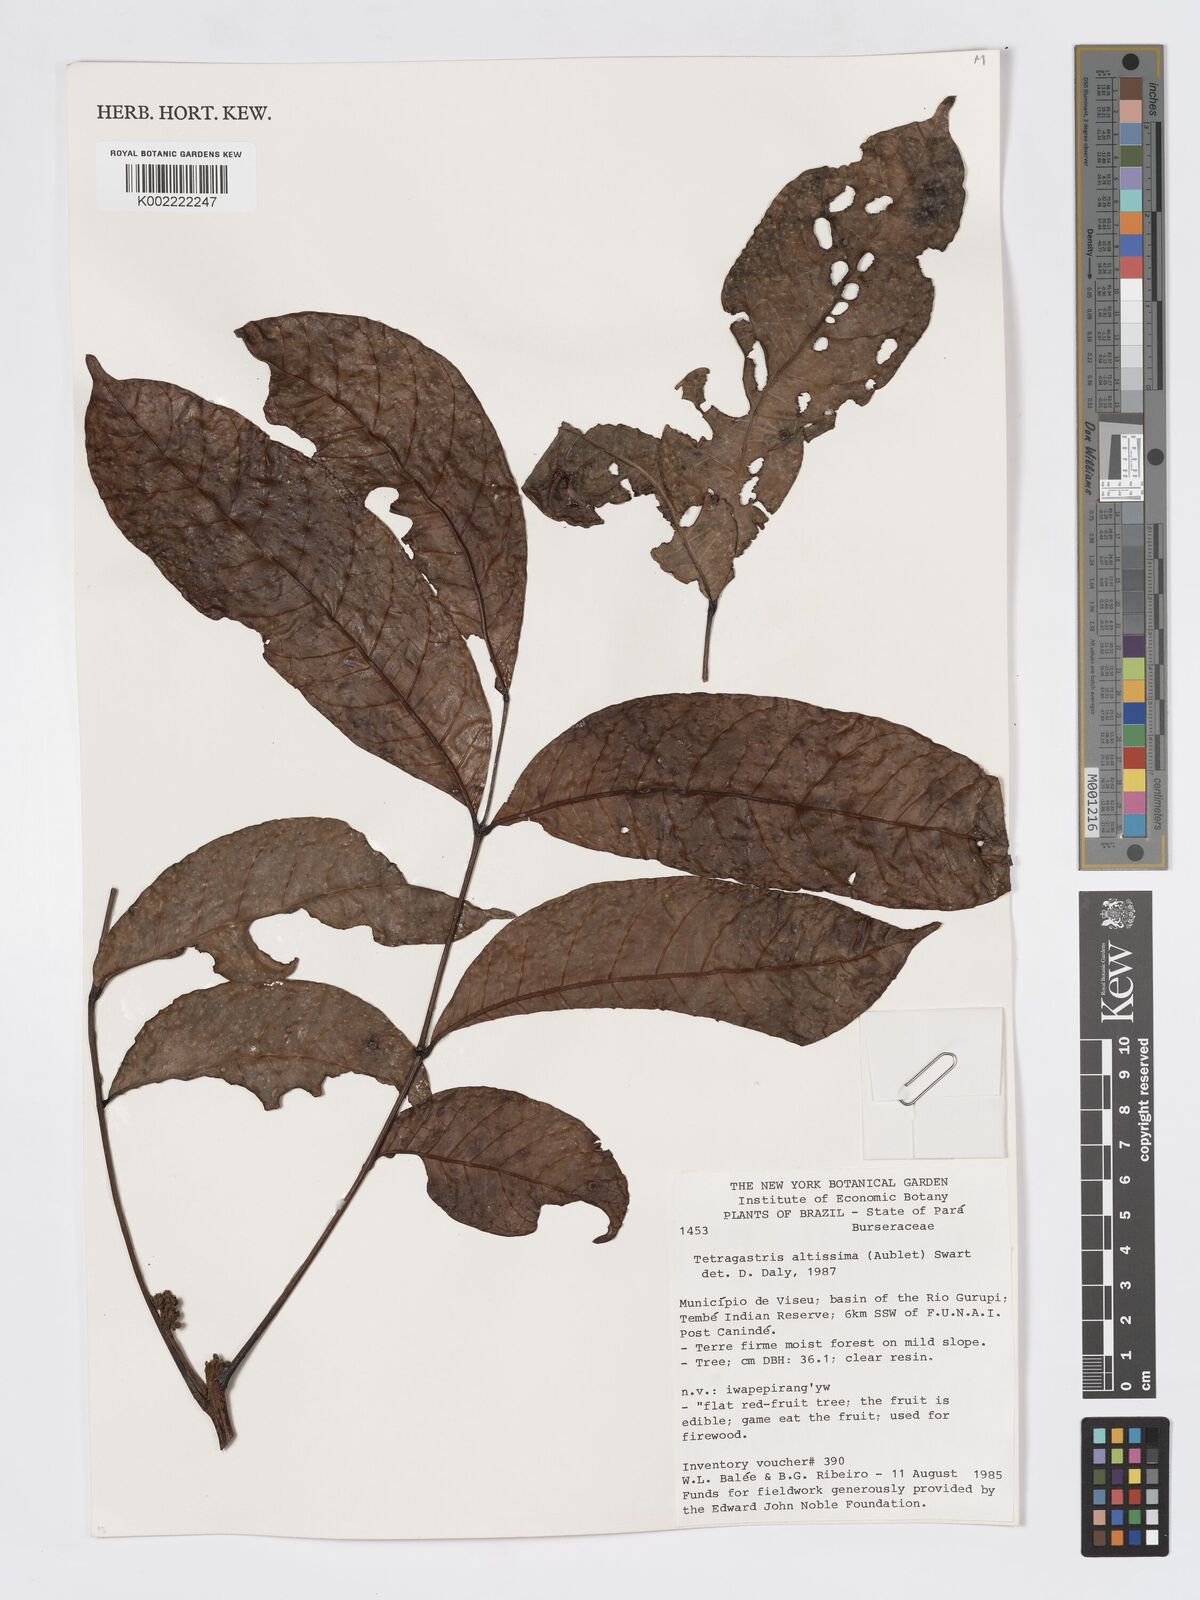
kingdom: Plantae
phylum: Tracheophyta
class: Magnoliopsida
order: Sapindales
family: Burseraceae
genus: Tetragastris
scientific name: Tetragastris altissima
